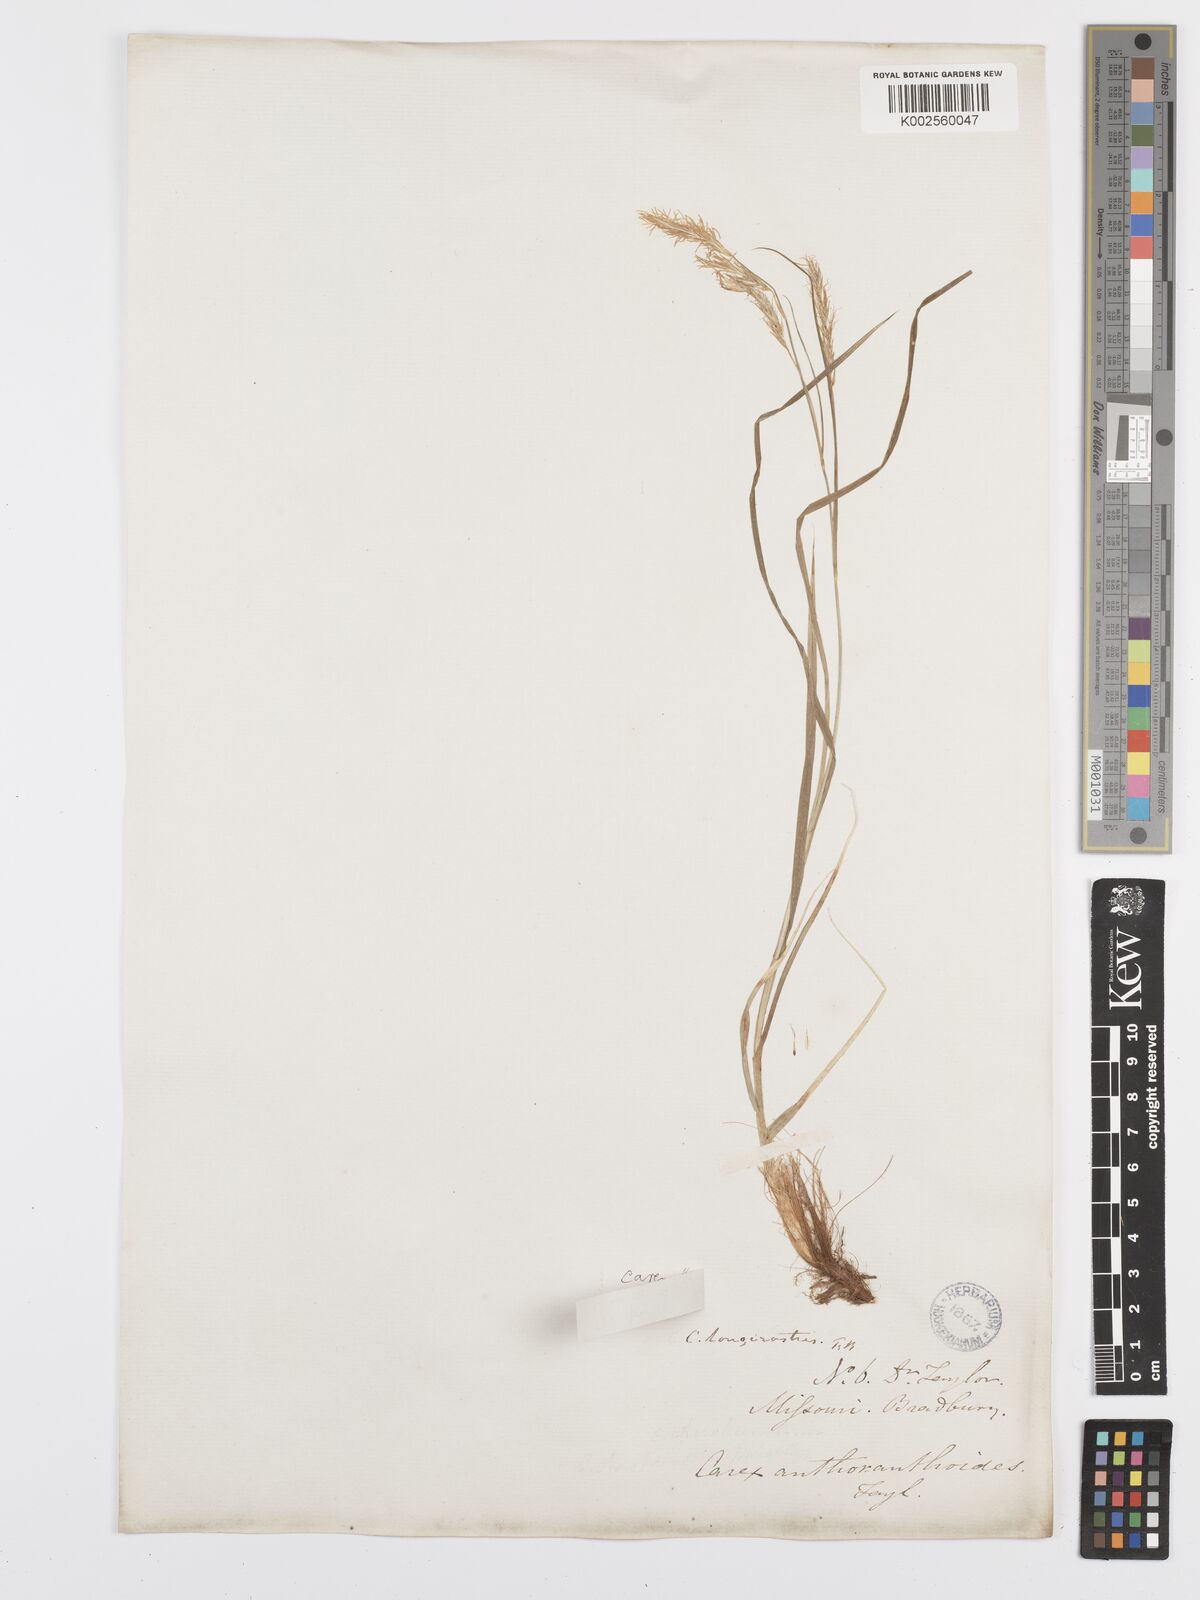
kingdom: Plantae
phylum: Tracheophyta
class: Liliopsida
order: Poales
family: Cyperaceae
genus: Carex
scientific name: Carex sprengelii
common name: Long-beaked sedge
